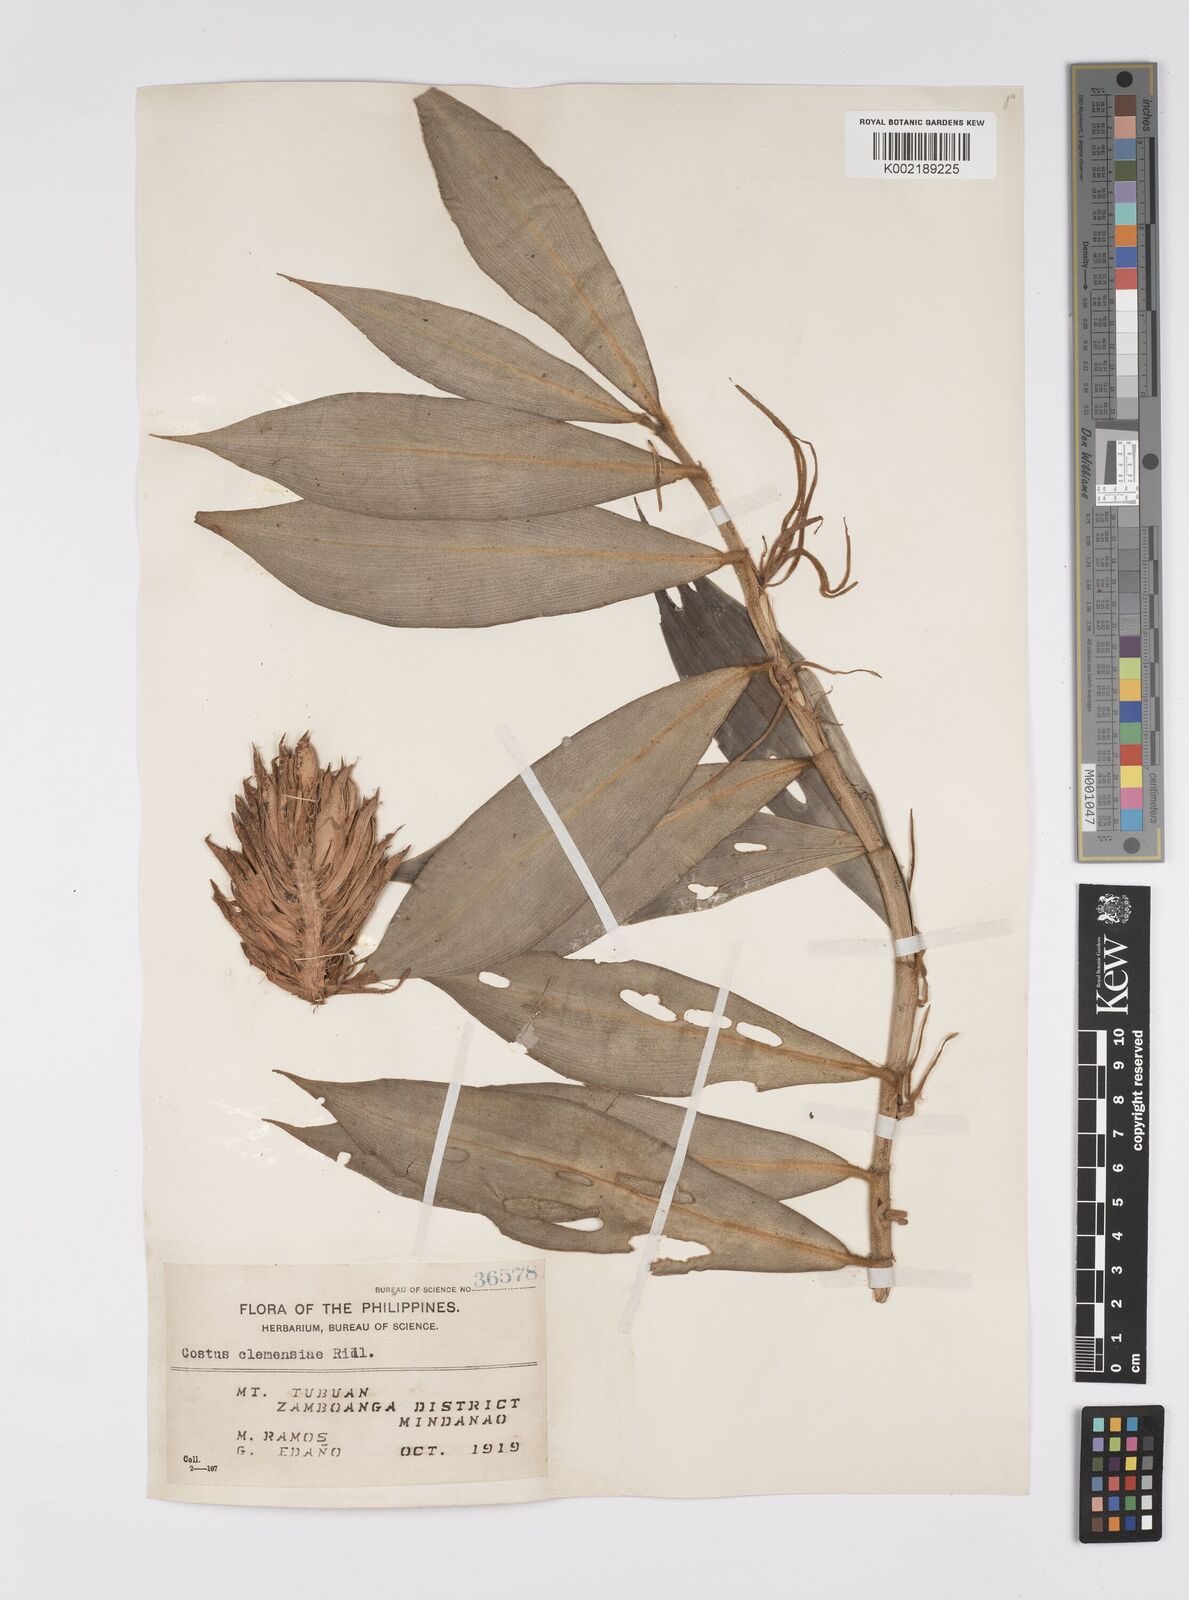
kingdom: Plantae
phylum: Tracheophyta
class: Liliopsida
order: Zingiberales
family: Costaceae
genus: Costus
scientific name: Costus clemensiae
